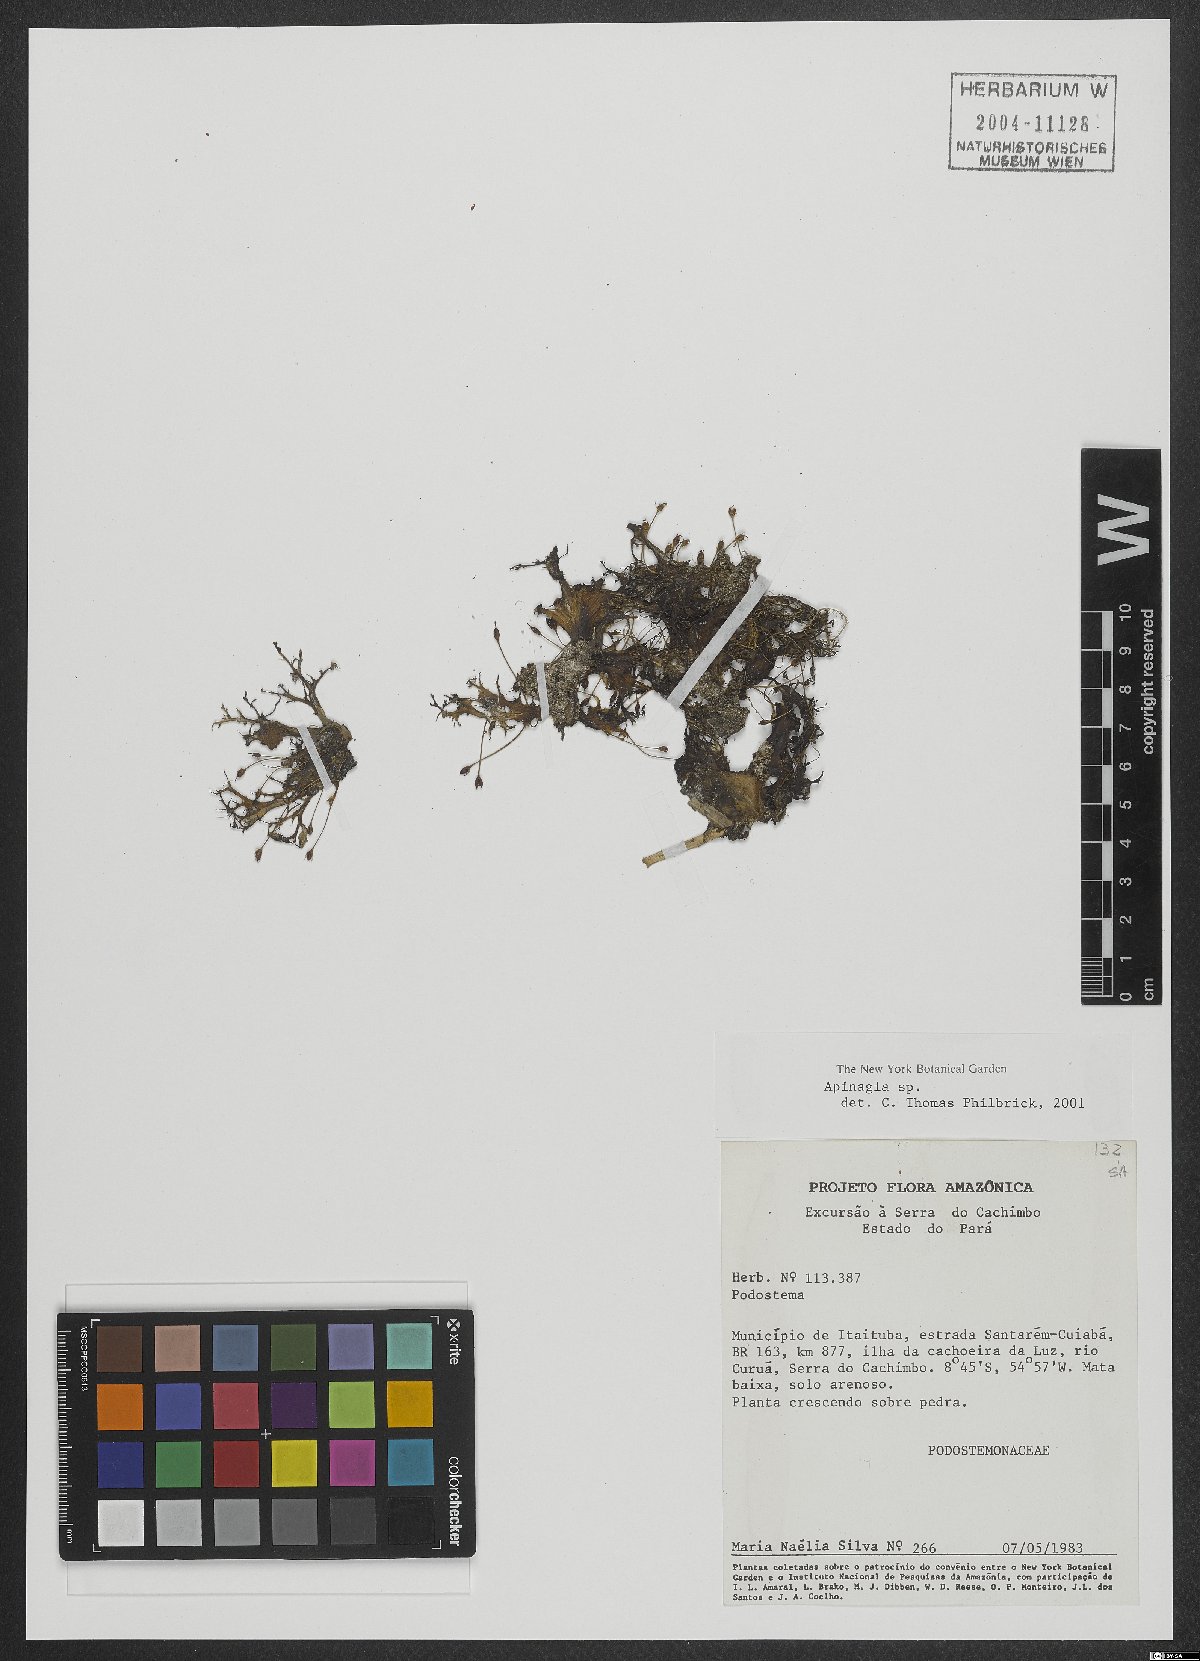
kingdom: Plantae
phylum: Tracheophyta
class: Magnoliopsida
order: Malpighiales
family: Podostemaceae
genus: Apinagia
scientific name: Apinagia
